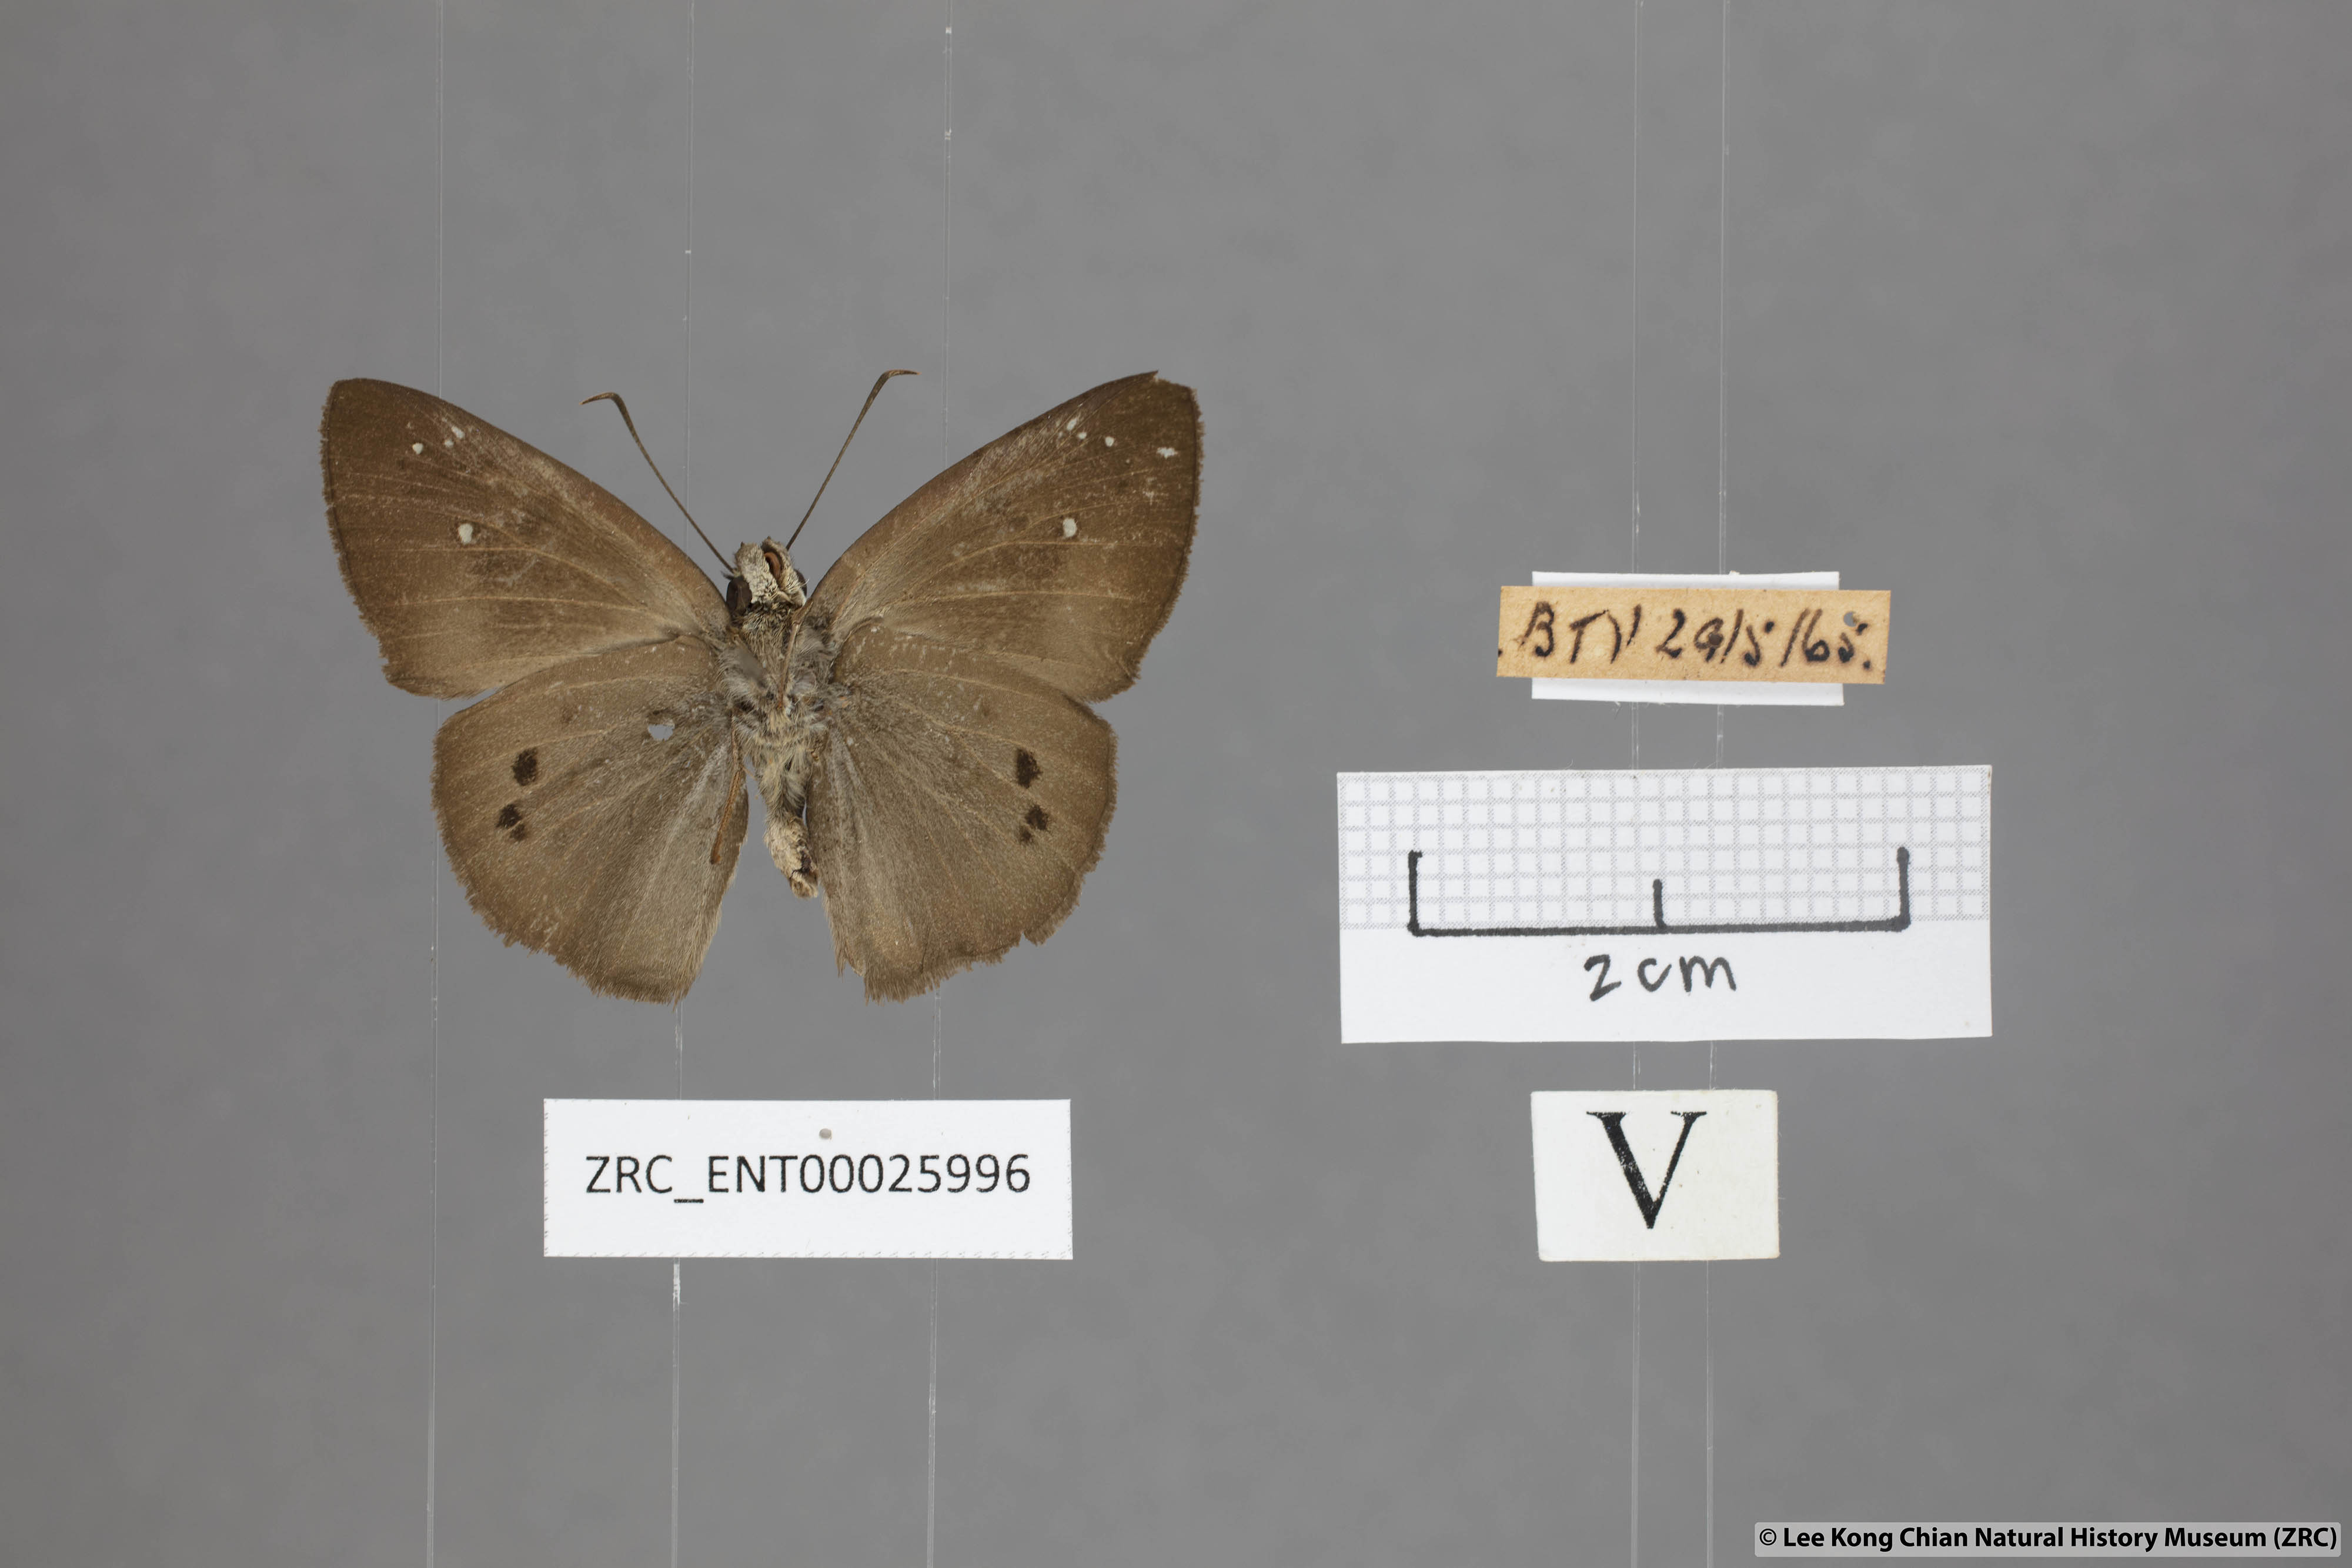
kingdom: Animalia
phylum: Arthropoda
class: Insecta
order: Lepidoptera
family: Hesperiidae
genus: Tagiades
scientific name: Tagiades japetus
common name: Pied flat
